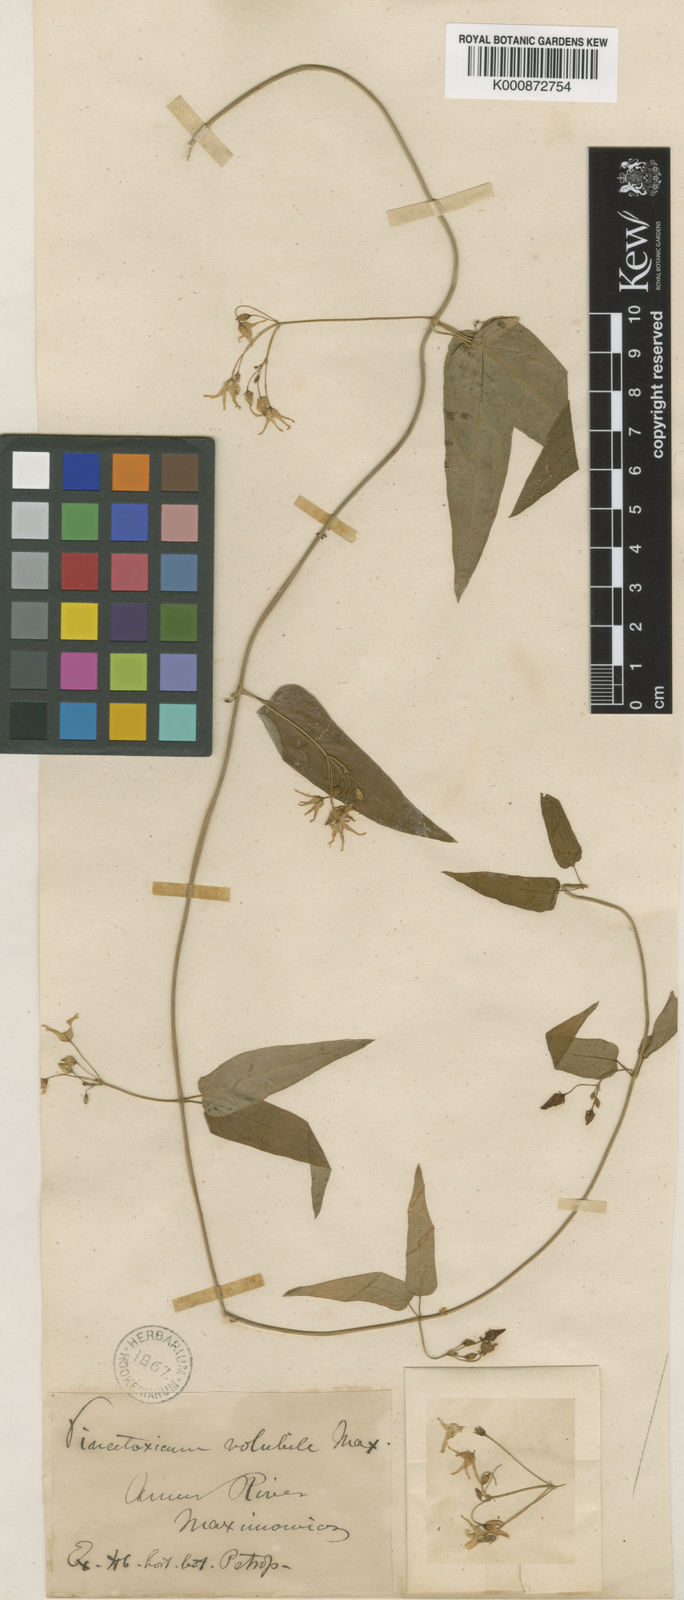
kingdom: Plantae
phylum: Tracheophyta
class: Magnoliopsida
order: Gentianales
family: Apocynaceae
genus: Vincetoxicum
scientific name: Vincetoxicum volubile
